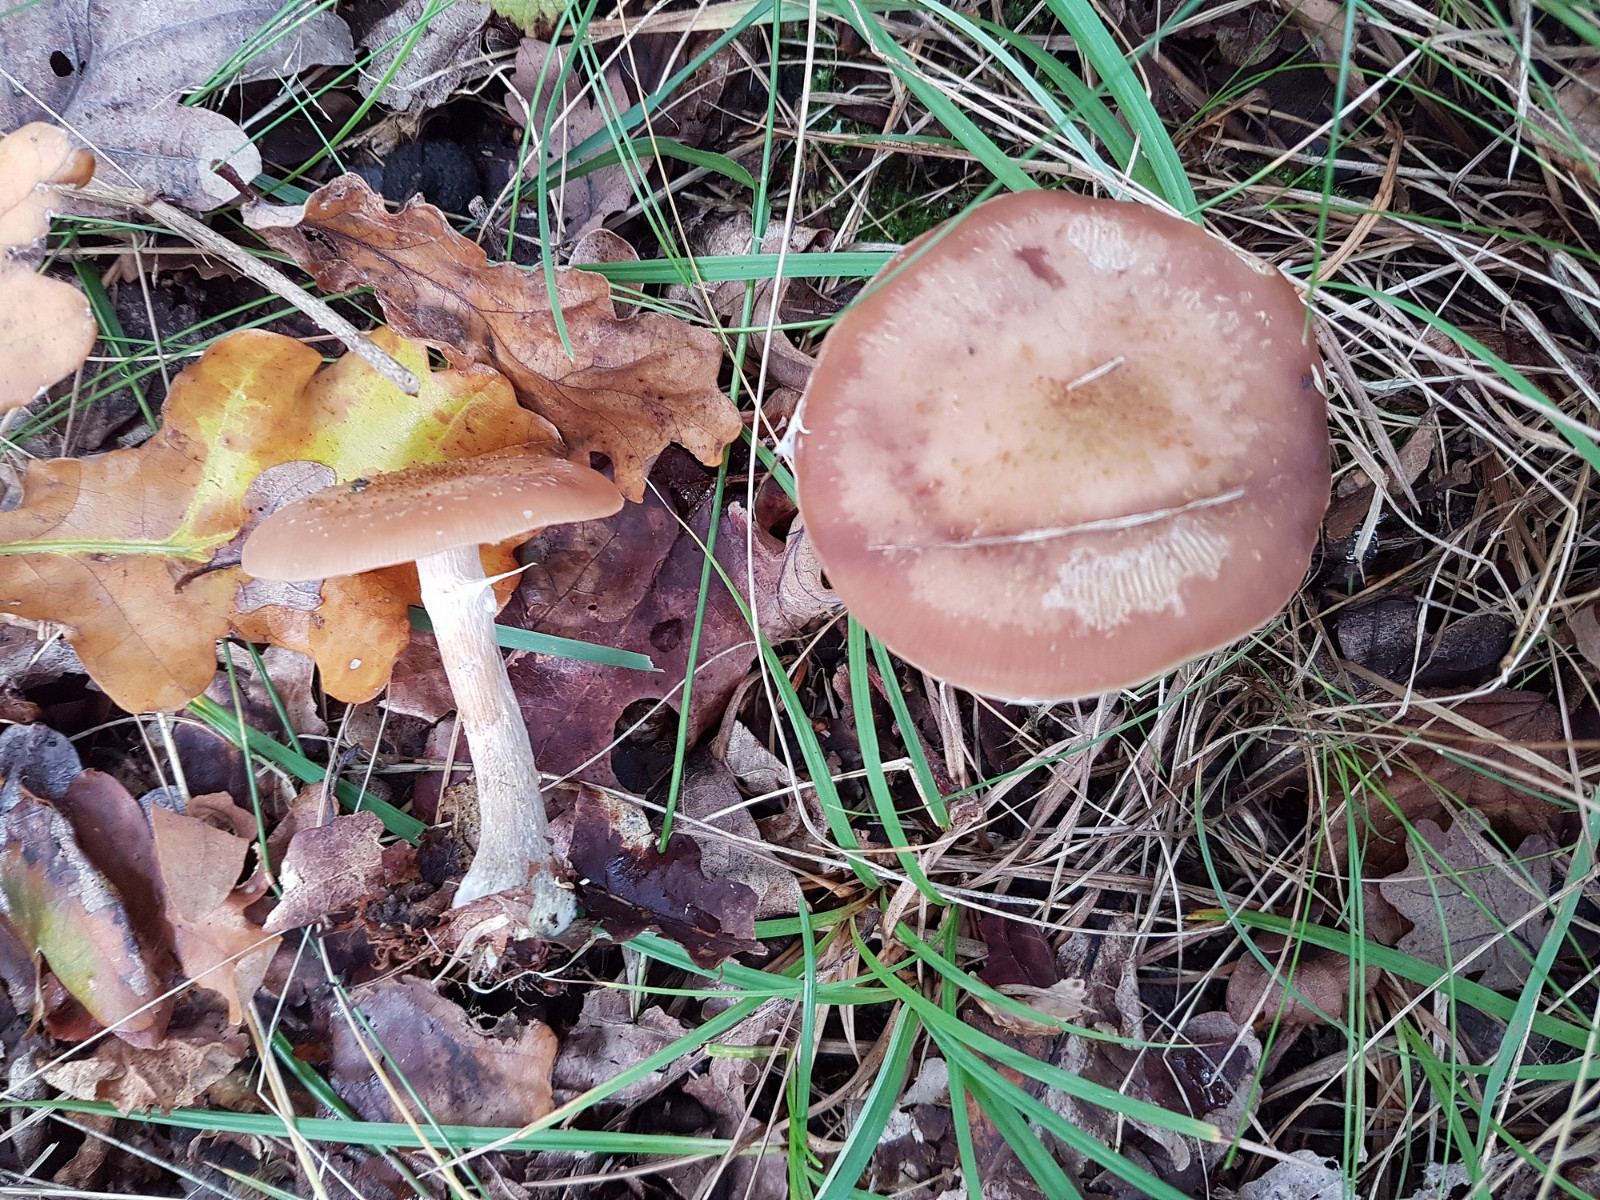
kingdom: Fungi
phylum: Basidiomycota
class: Agaricomycetes
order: Agaricales
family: Physalacriaceae
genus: Armillaria
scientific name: Armillaria cepistipes
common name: knoldfodet honningsvamp
